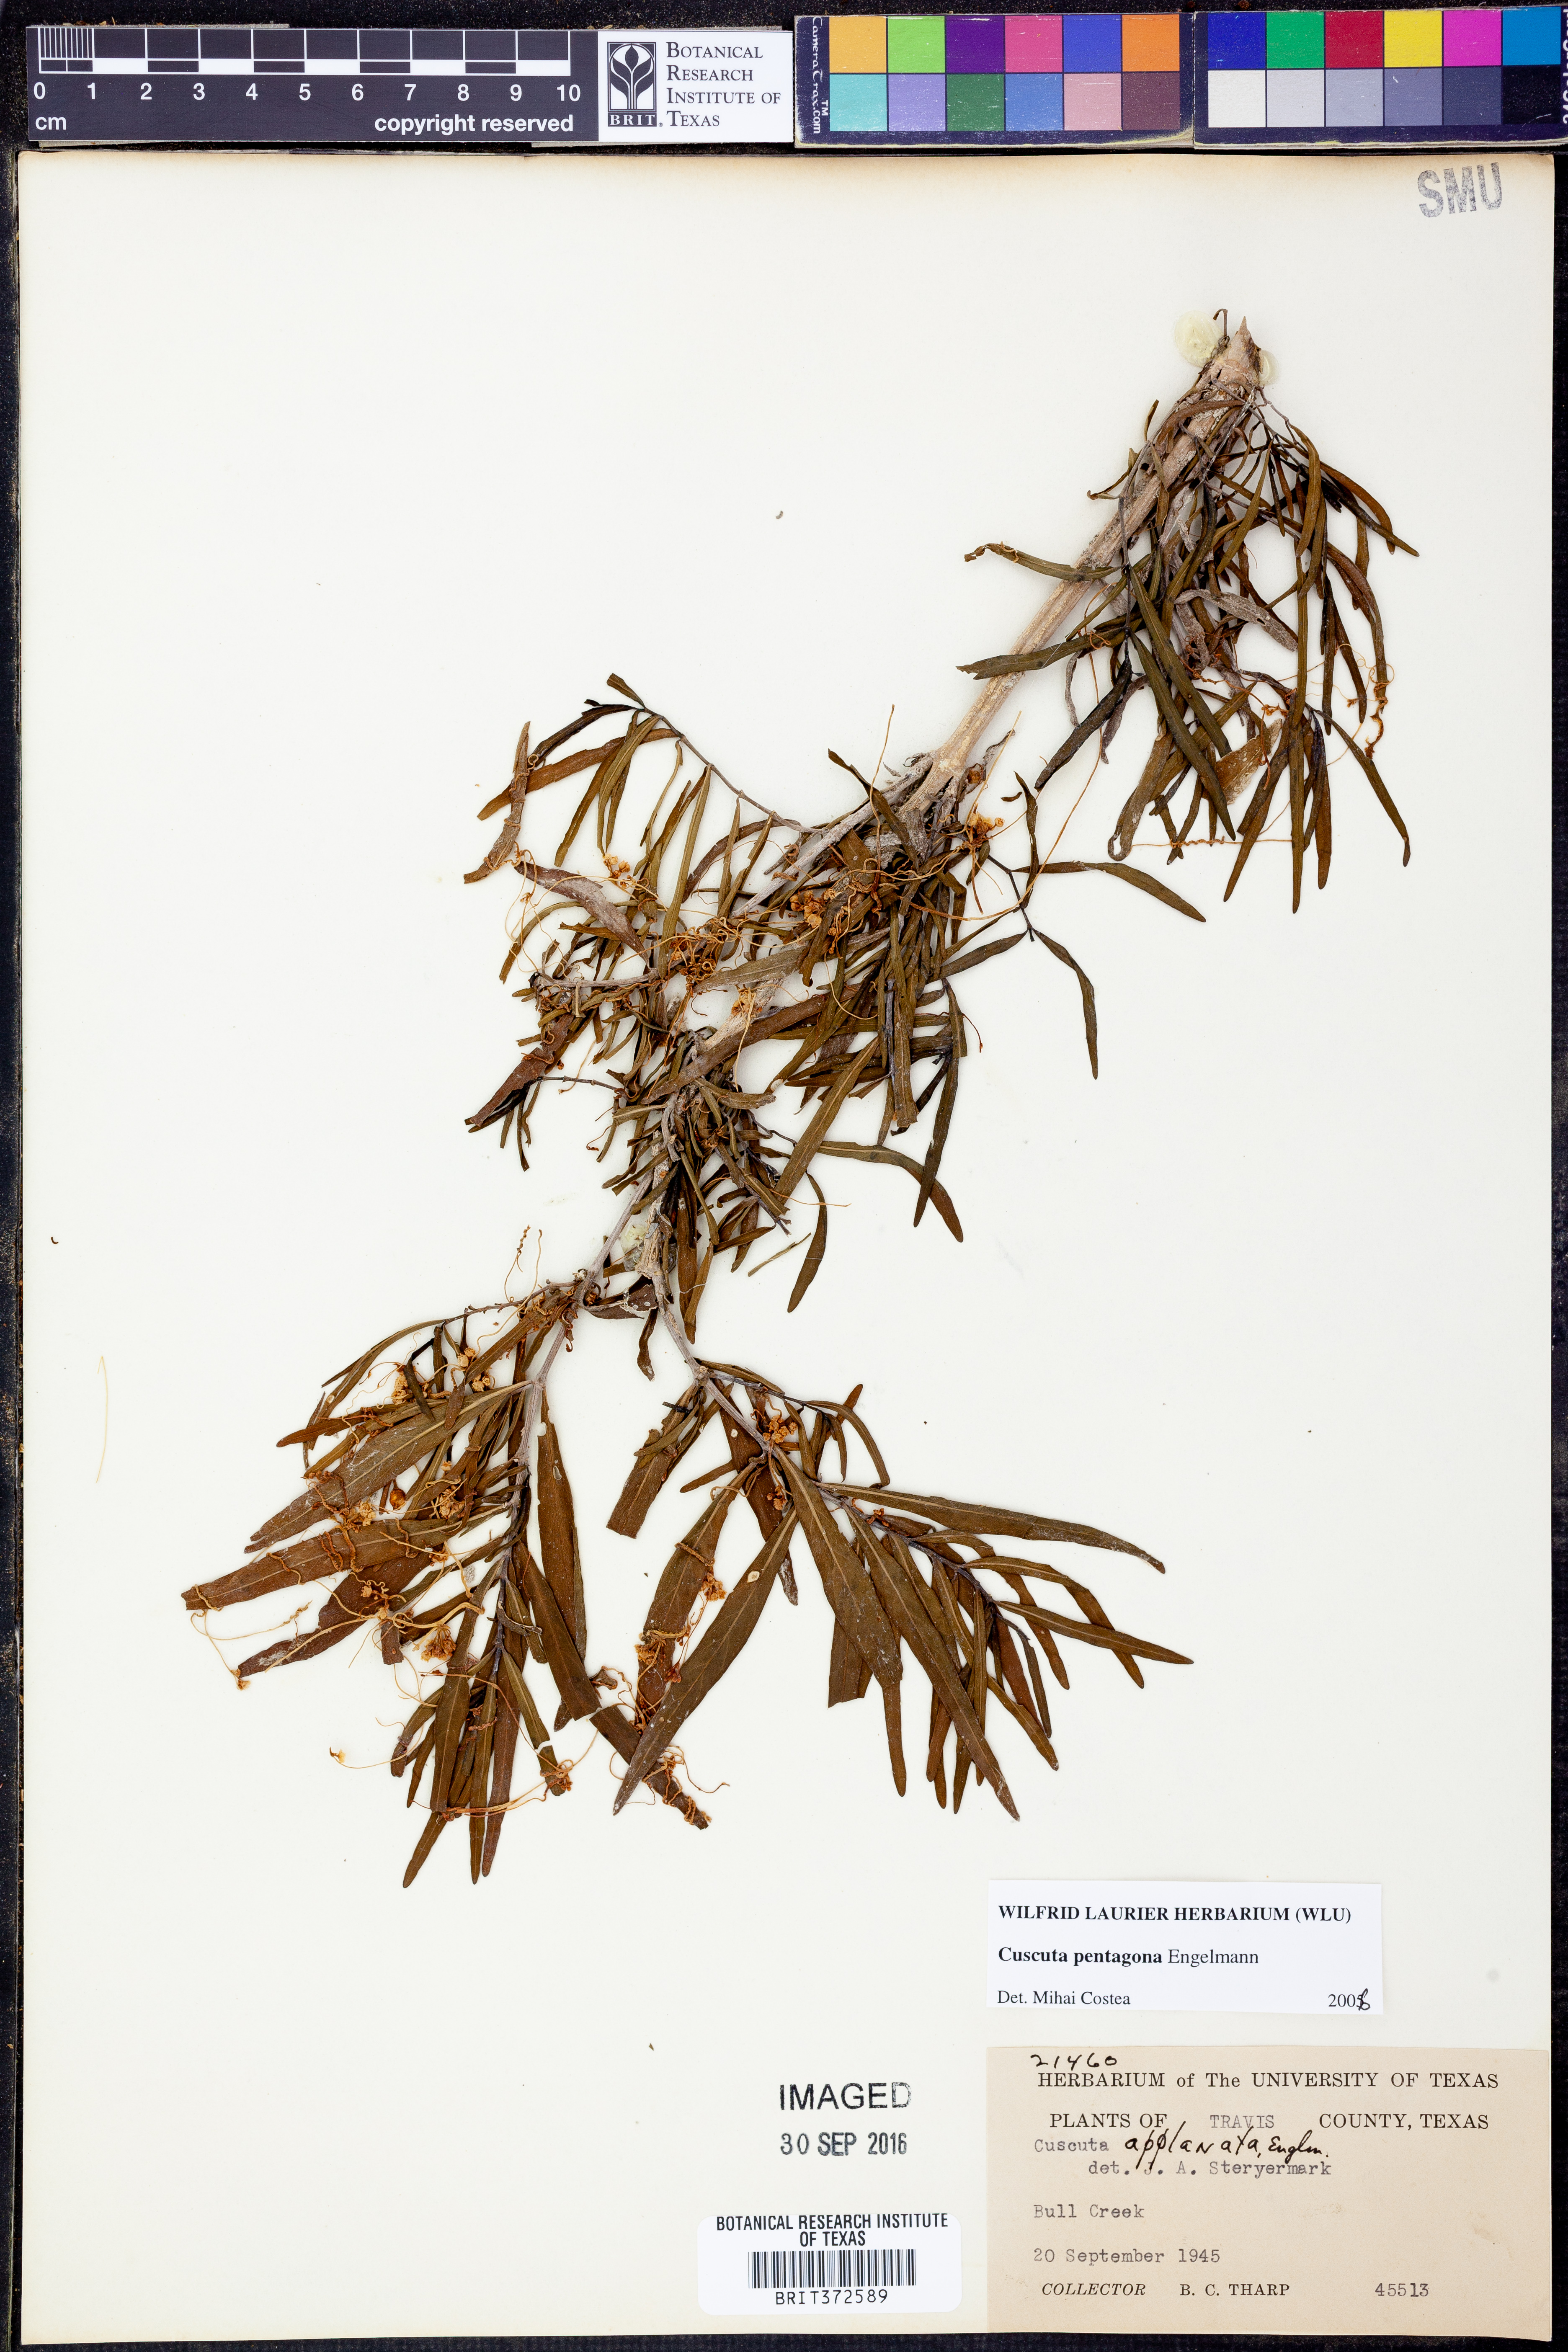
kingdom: Plantae
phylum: Tracheophyta
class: Magnoliopsida
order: Solanales
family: Convolvulaceae
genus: Cuscuta
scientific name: Cuscuta pentagona
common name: Fiveangled dodder
